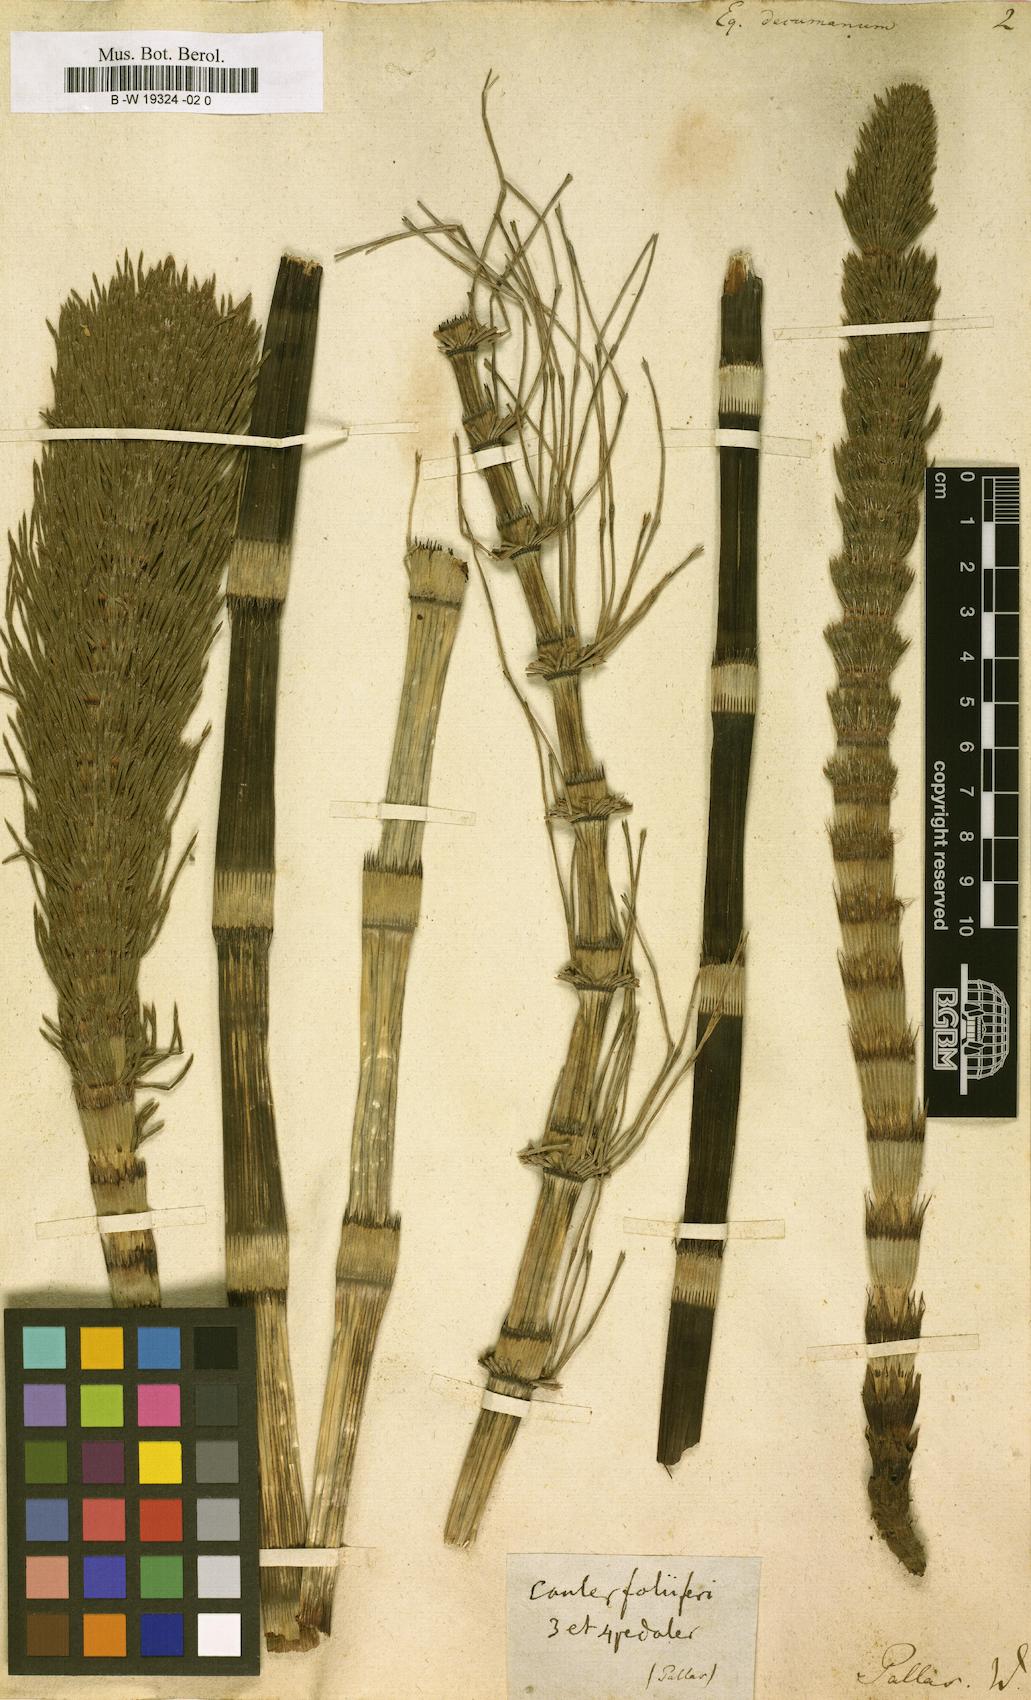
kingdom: Plantae
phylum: Tracheophyta
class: Polypodiopsida
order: Equisetales
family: Equisetaceae
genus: Equisetum
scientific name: Equisetum
